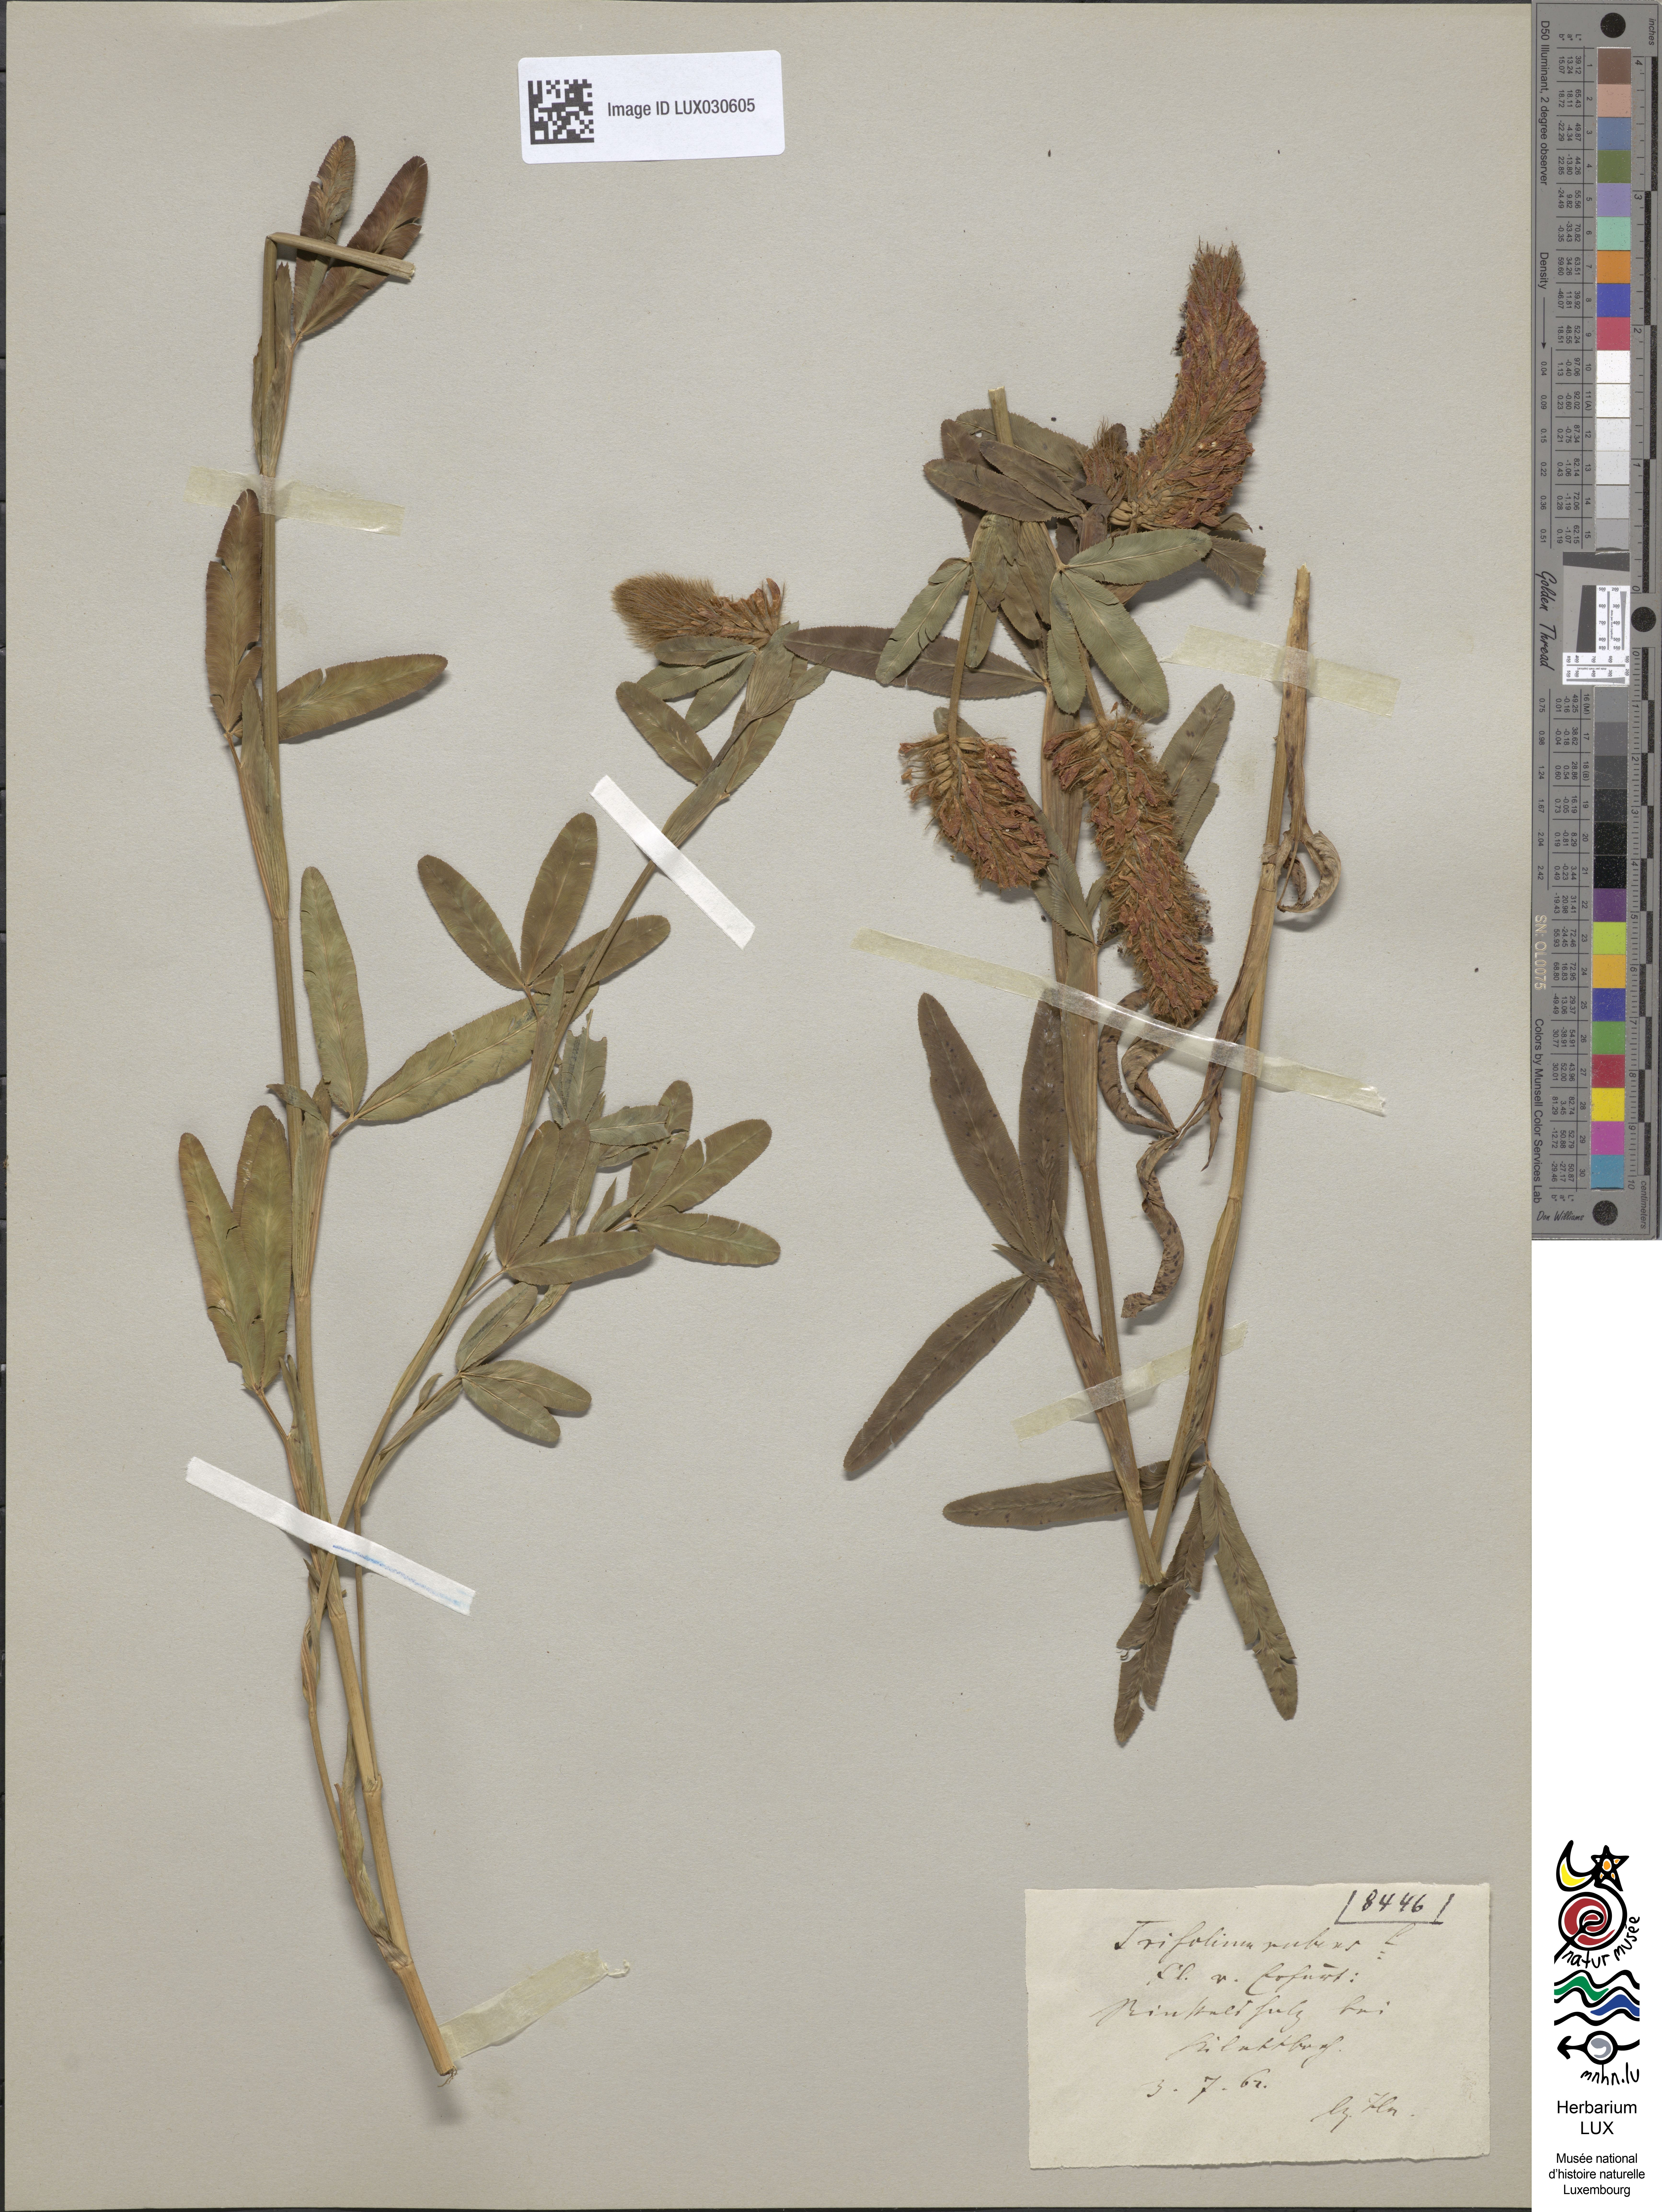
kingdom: Plantae
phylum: Tracheophyta
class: Magnoliopsida
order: Fabales
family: Fabaceae
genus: Trifolium
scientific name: Trifolium rubens
